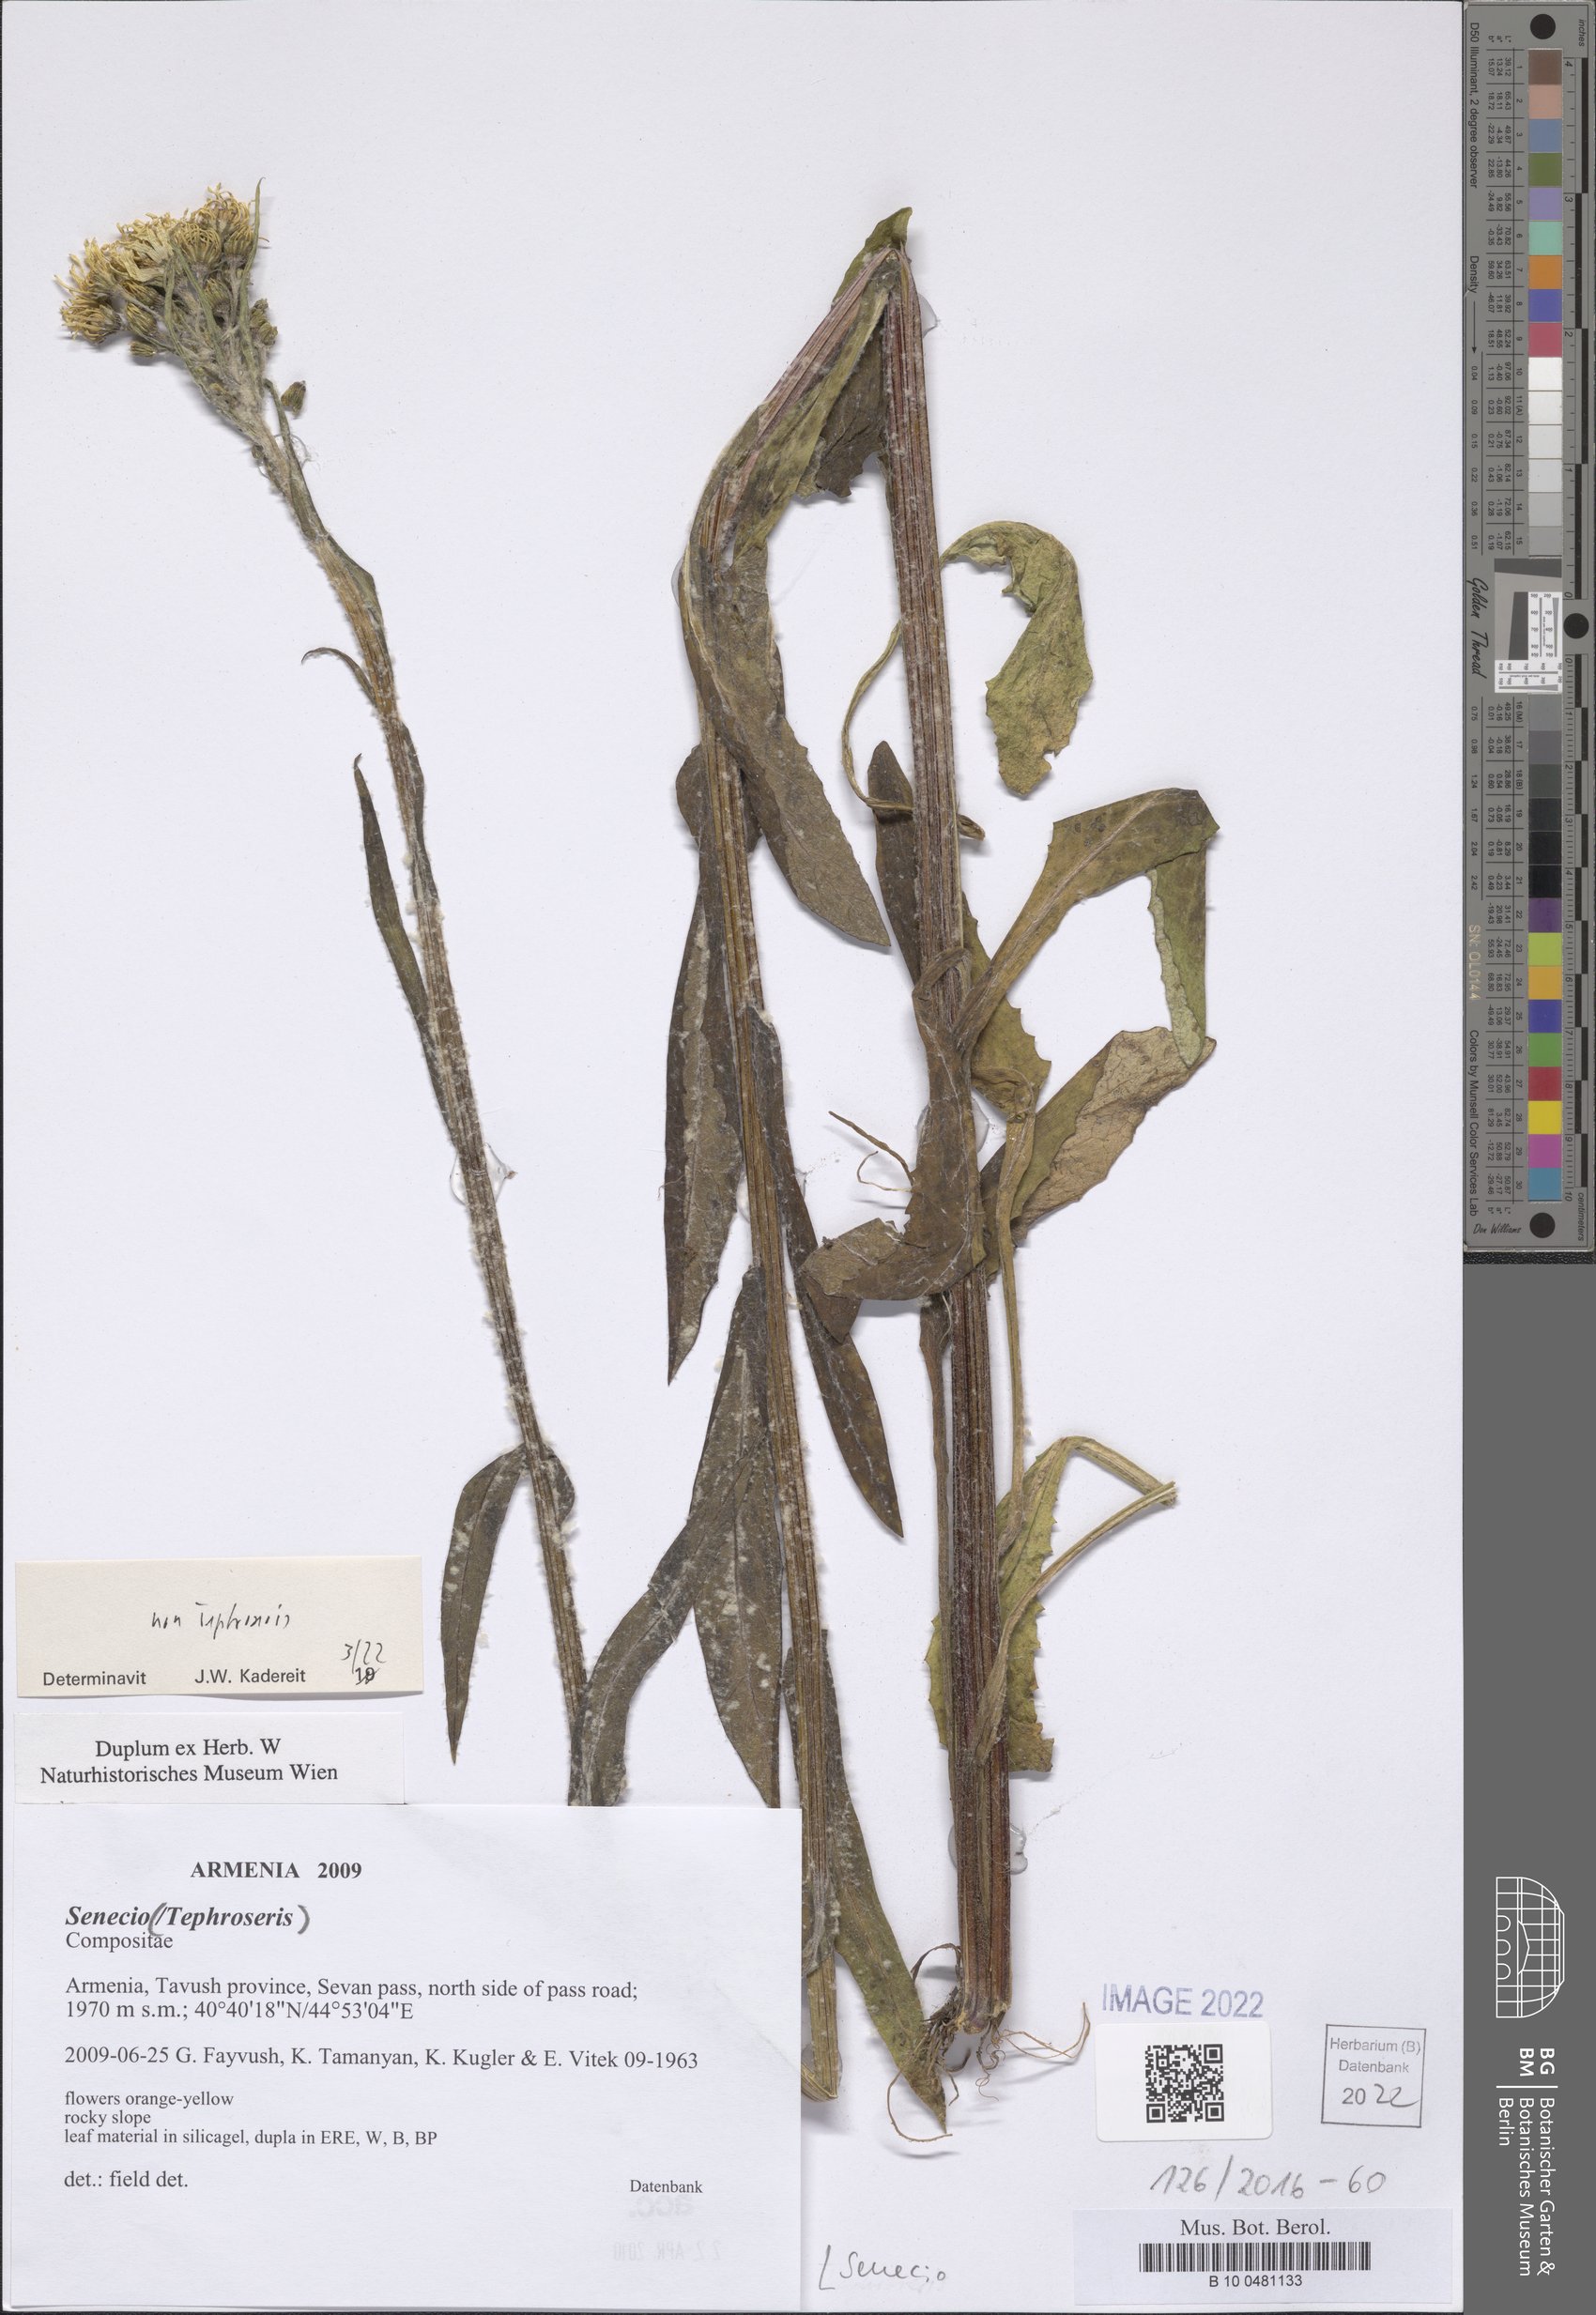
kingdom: Plantae
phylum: Tracheophyta
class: Magnoliopsida
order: Asterales
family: Asteraceae
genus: Senecio
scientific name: Senecio
